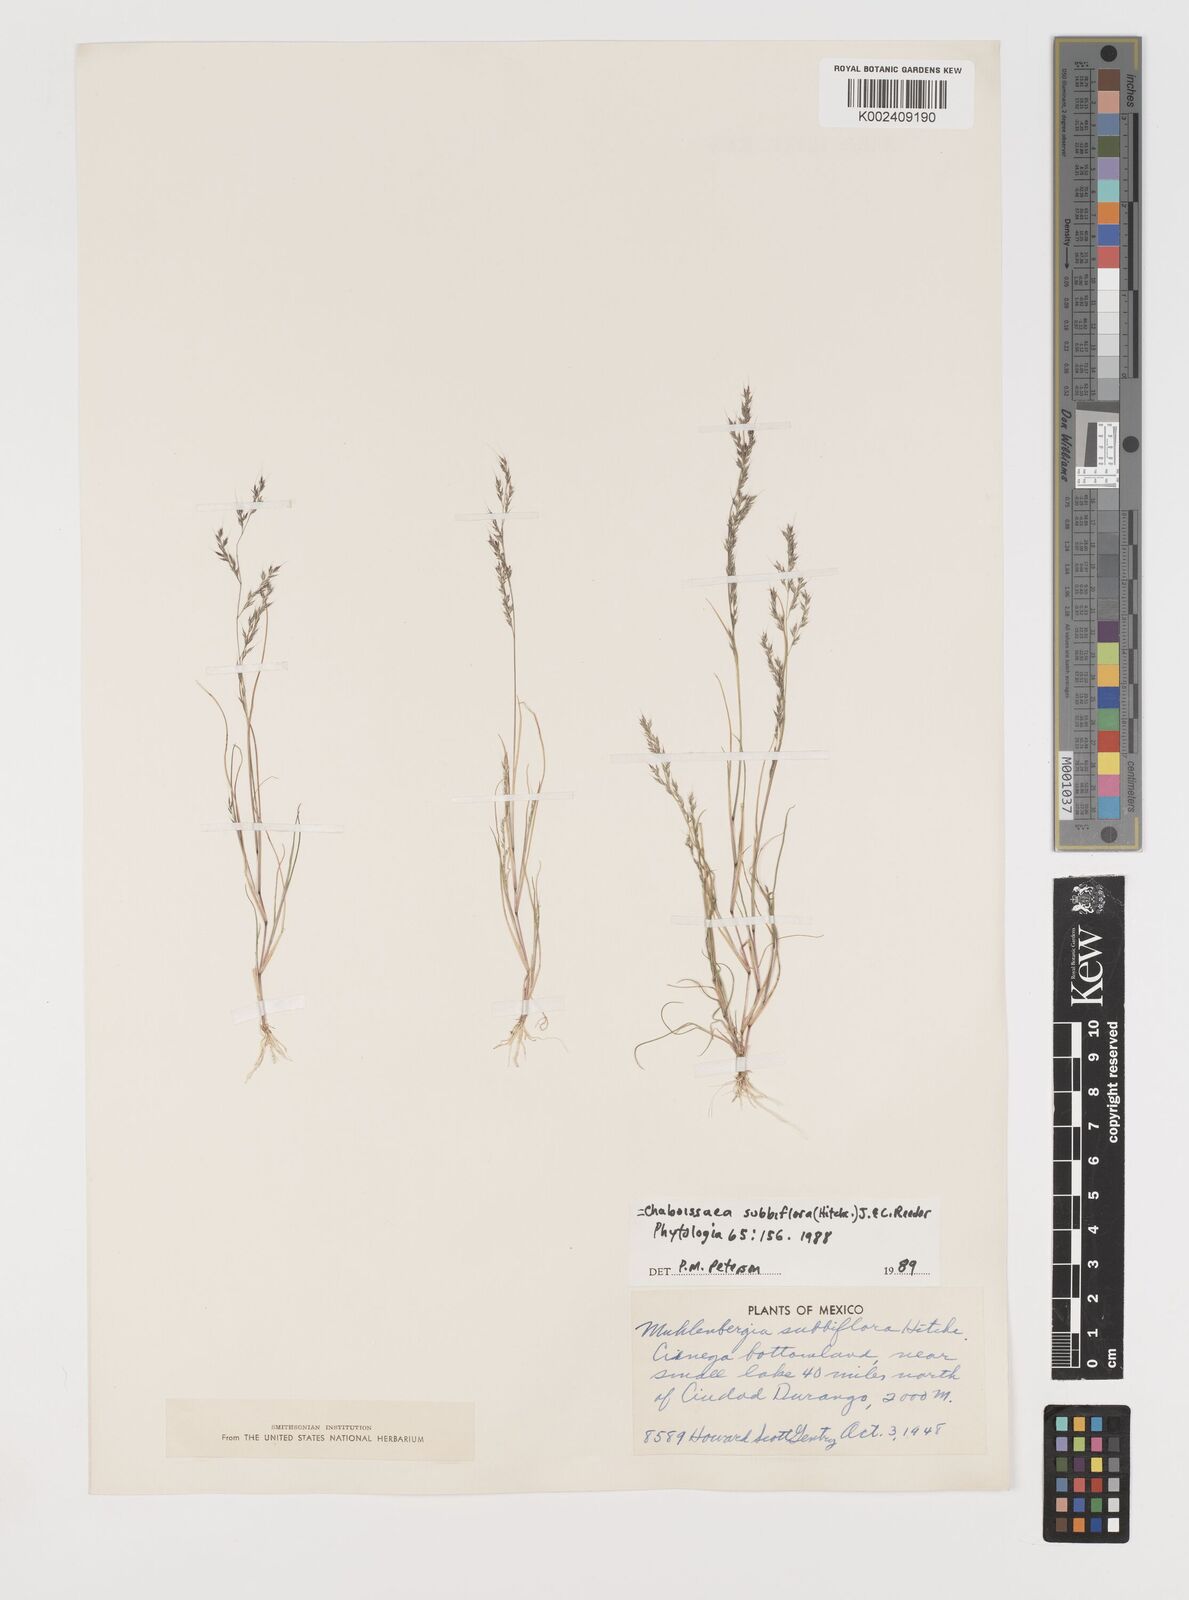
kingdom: Plantae
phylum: Tracheophyta
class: Liliopsida
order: Poales
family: Poaceae
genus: Muhlenbergia
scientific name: Muhlenbergia subbiflora
